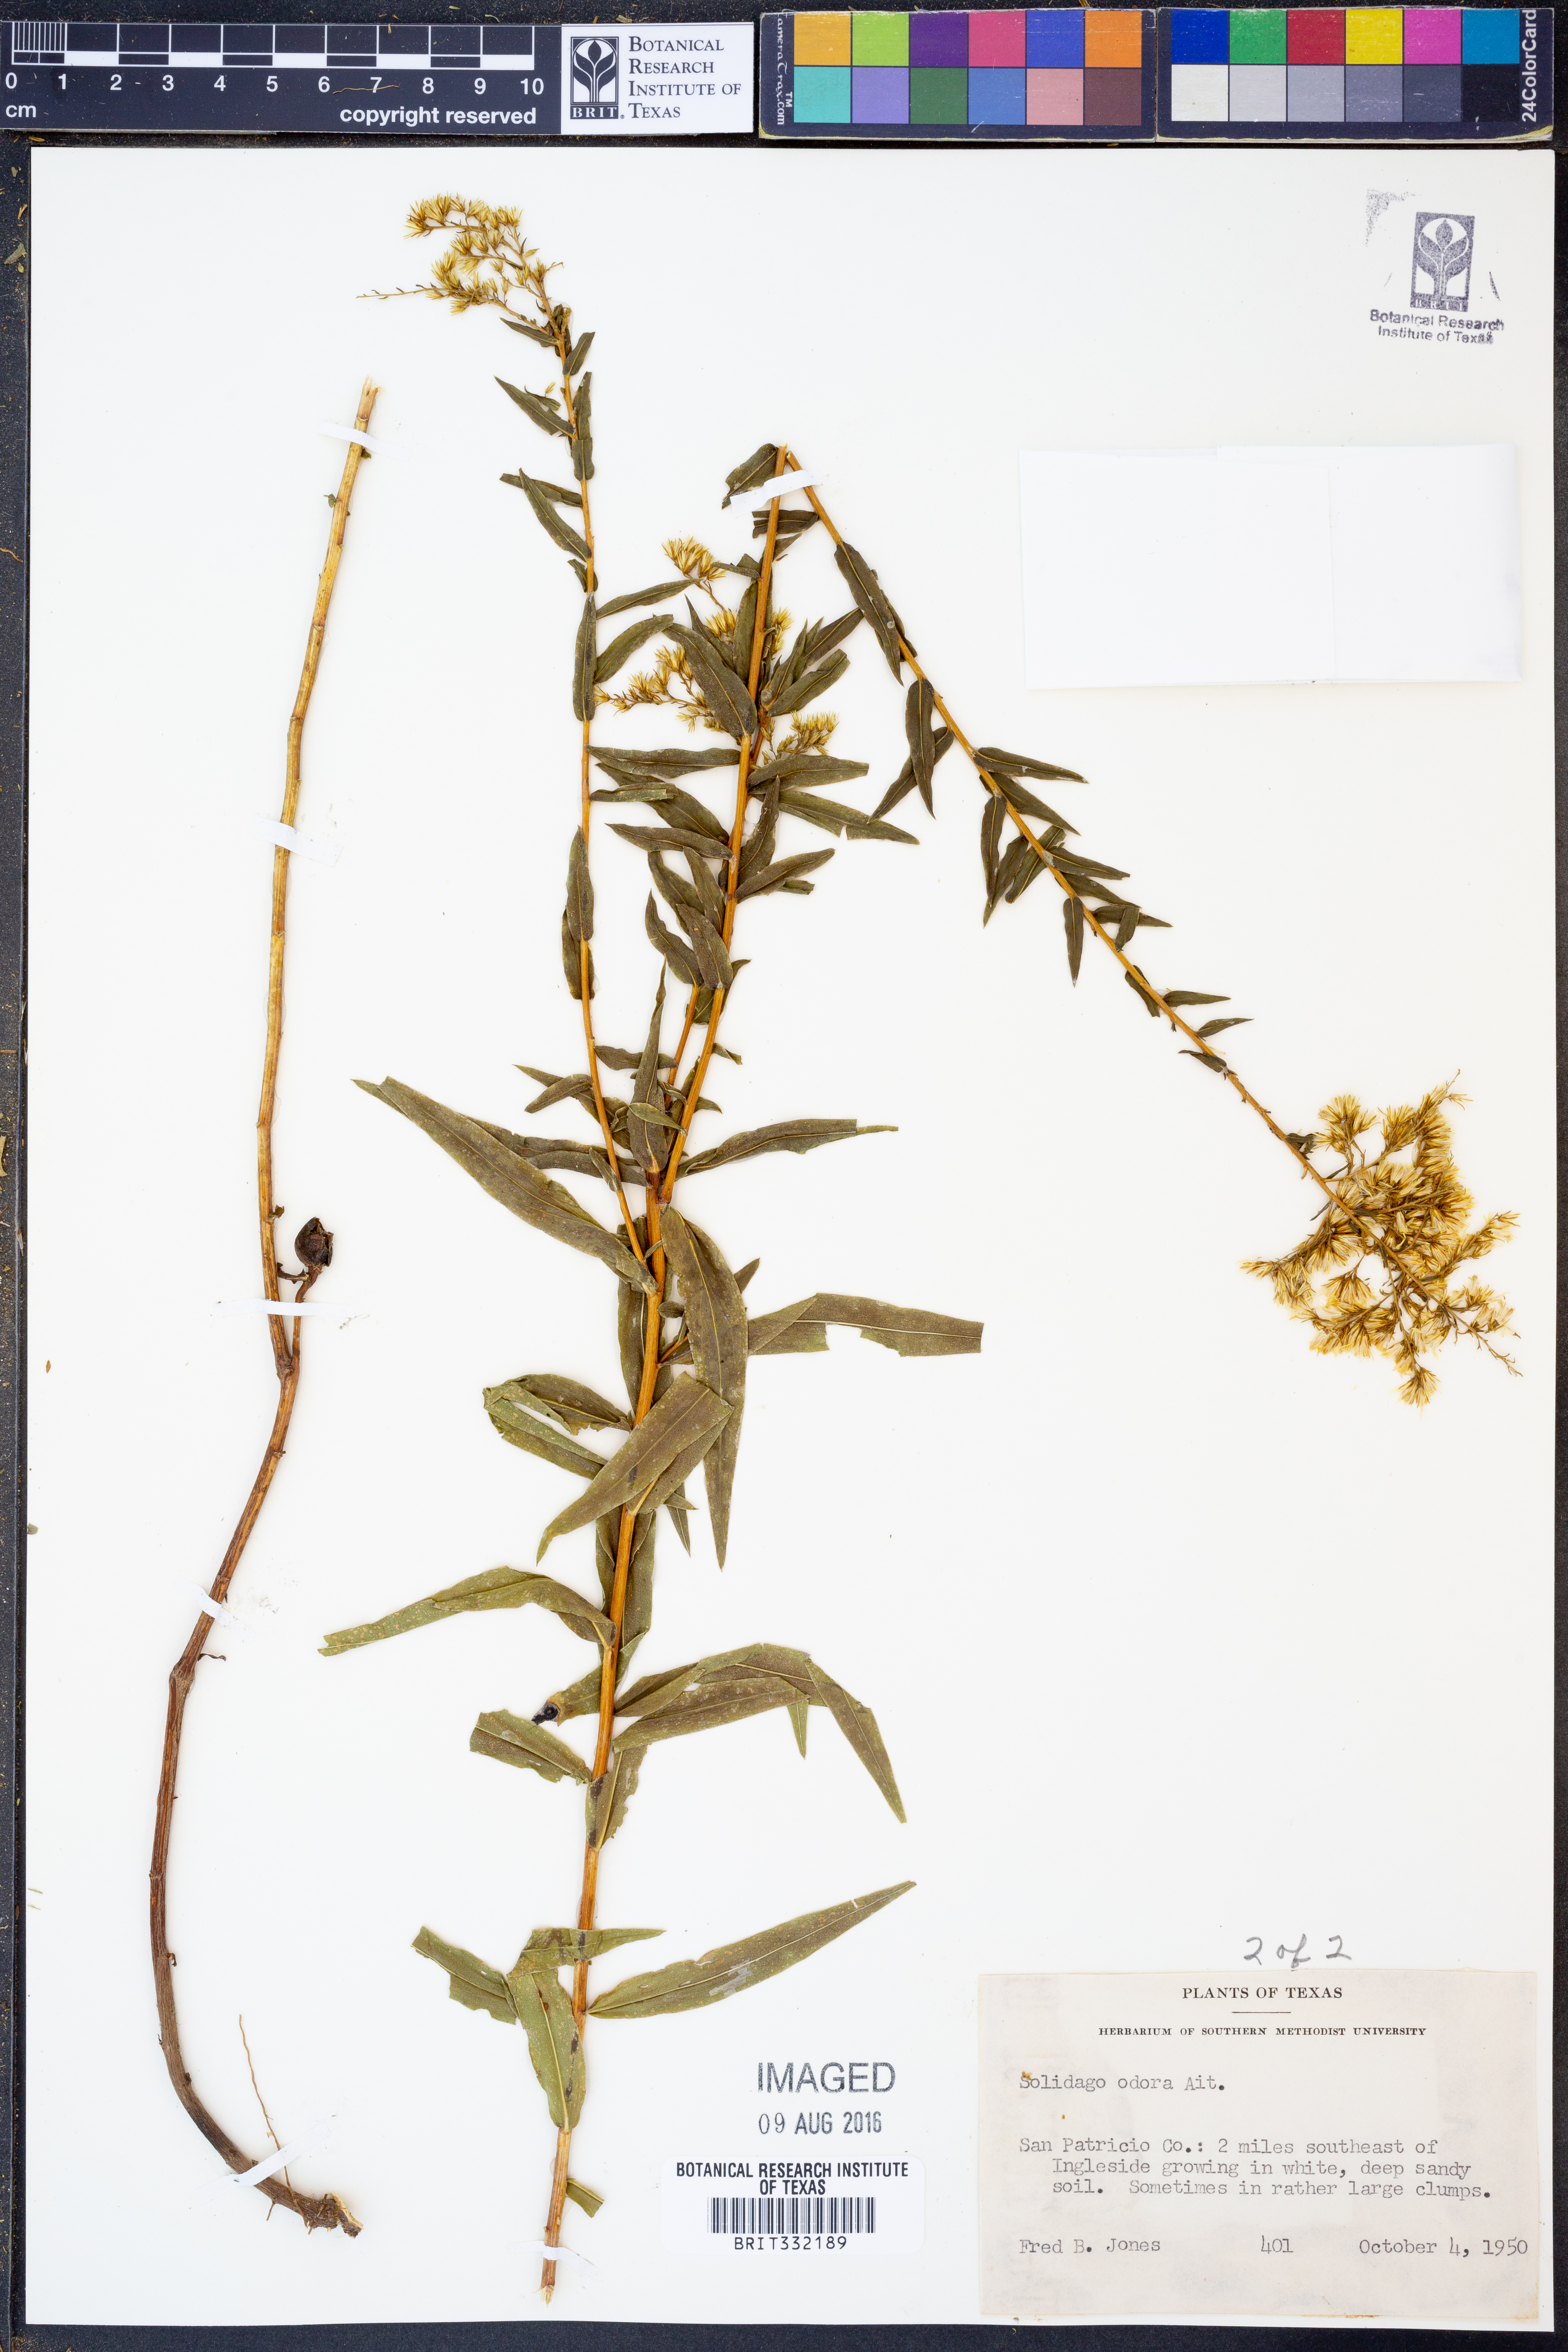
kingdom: Plantae
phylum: Tracheophyta
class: Magnoliopsida
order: Asterales
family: Asteraceae
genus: Solidago
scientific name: Solidago odora
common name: Anise-scented goldenrod
